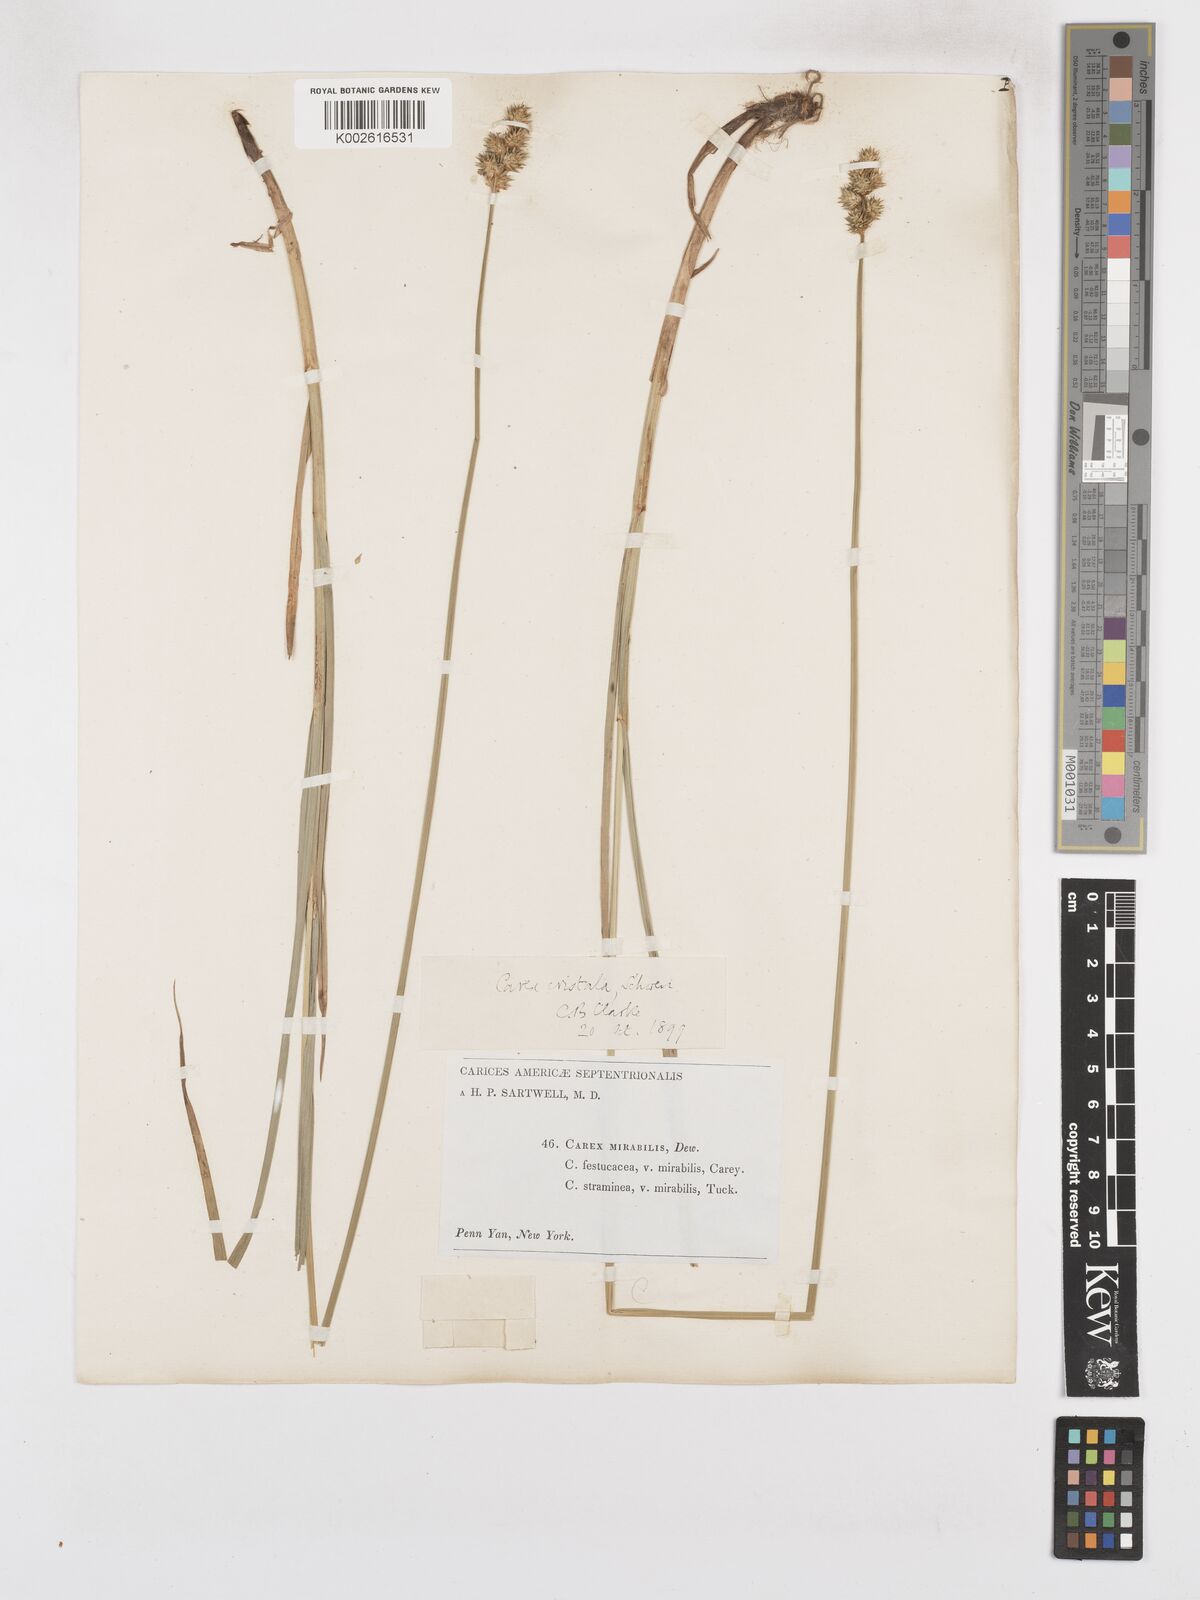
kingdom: Plantae
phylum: Tracheophyta
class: Liliopsida
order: Poales
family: Cyperaceae
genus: Carex
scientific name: Carex cristatella
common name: Crested oval sedge
